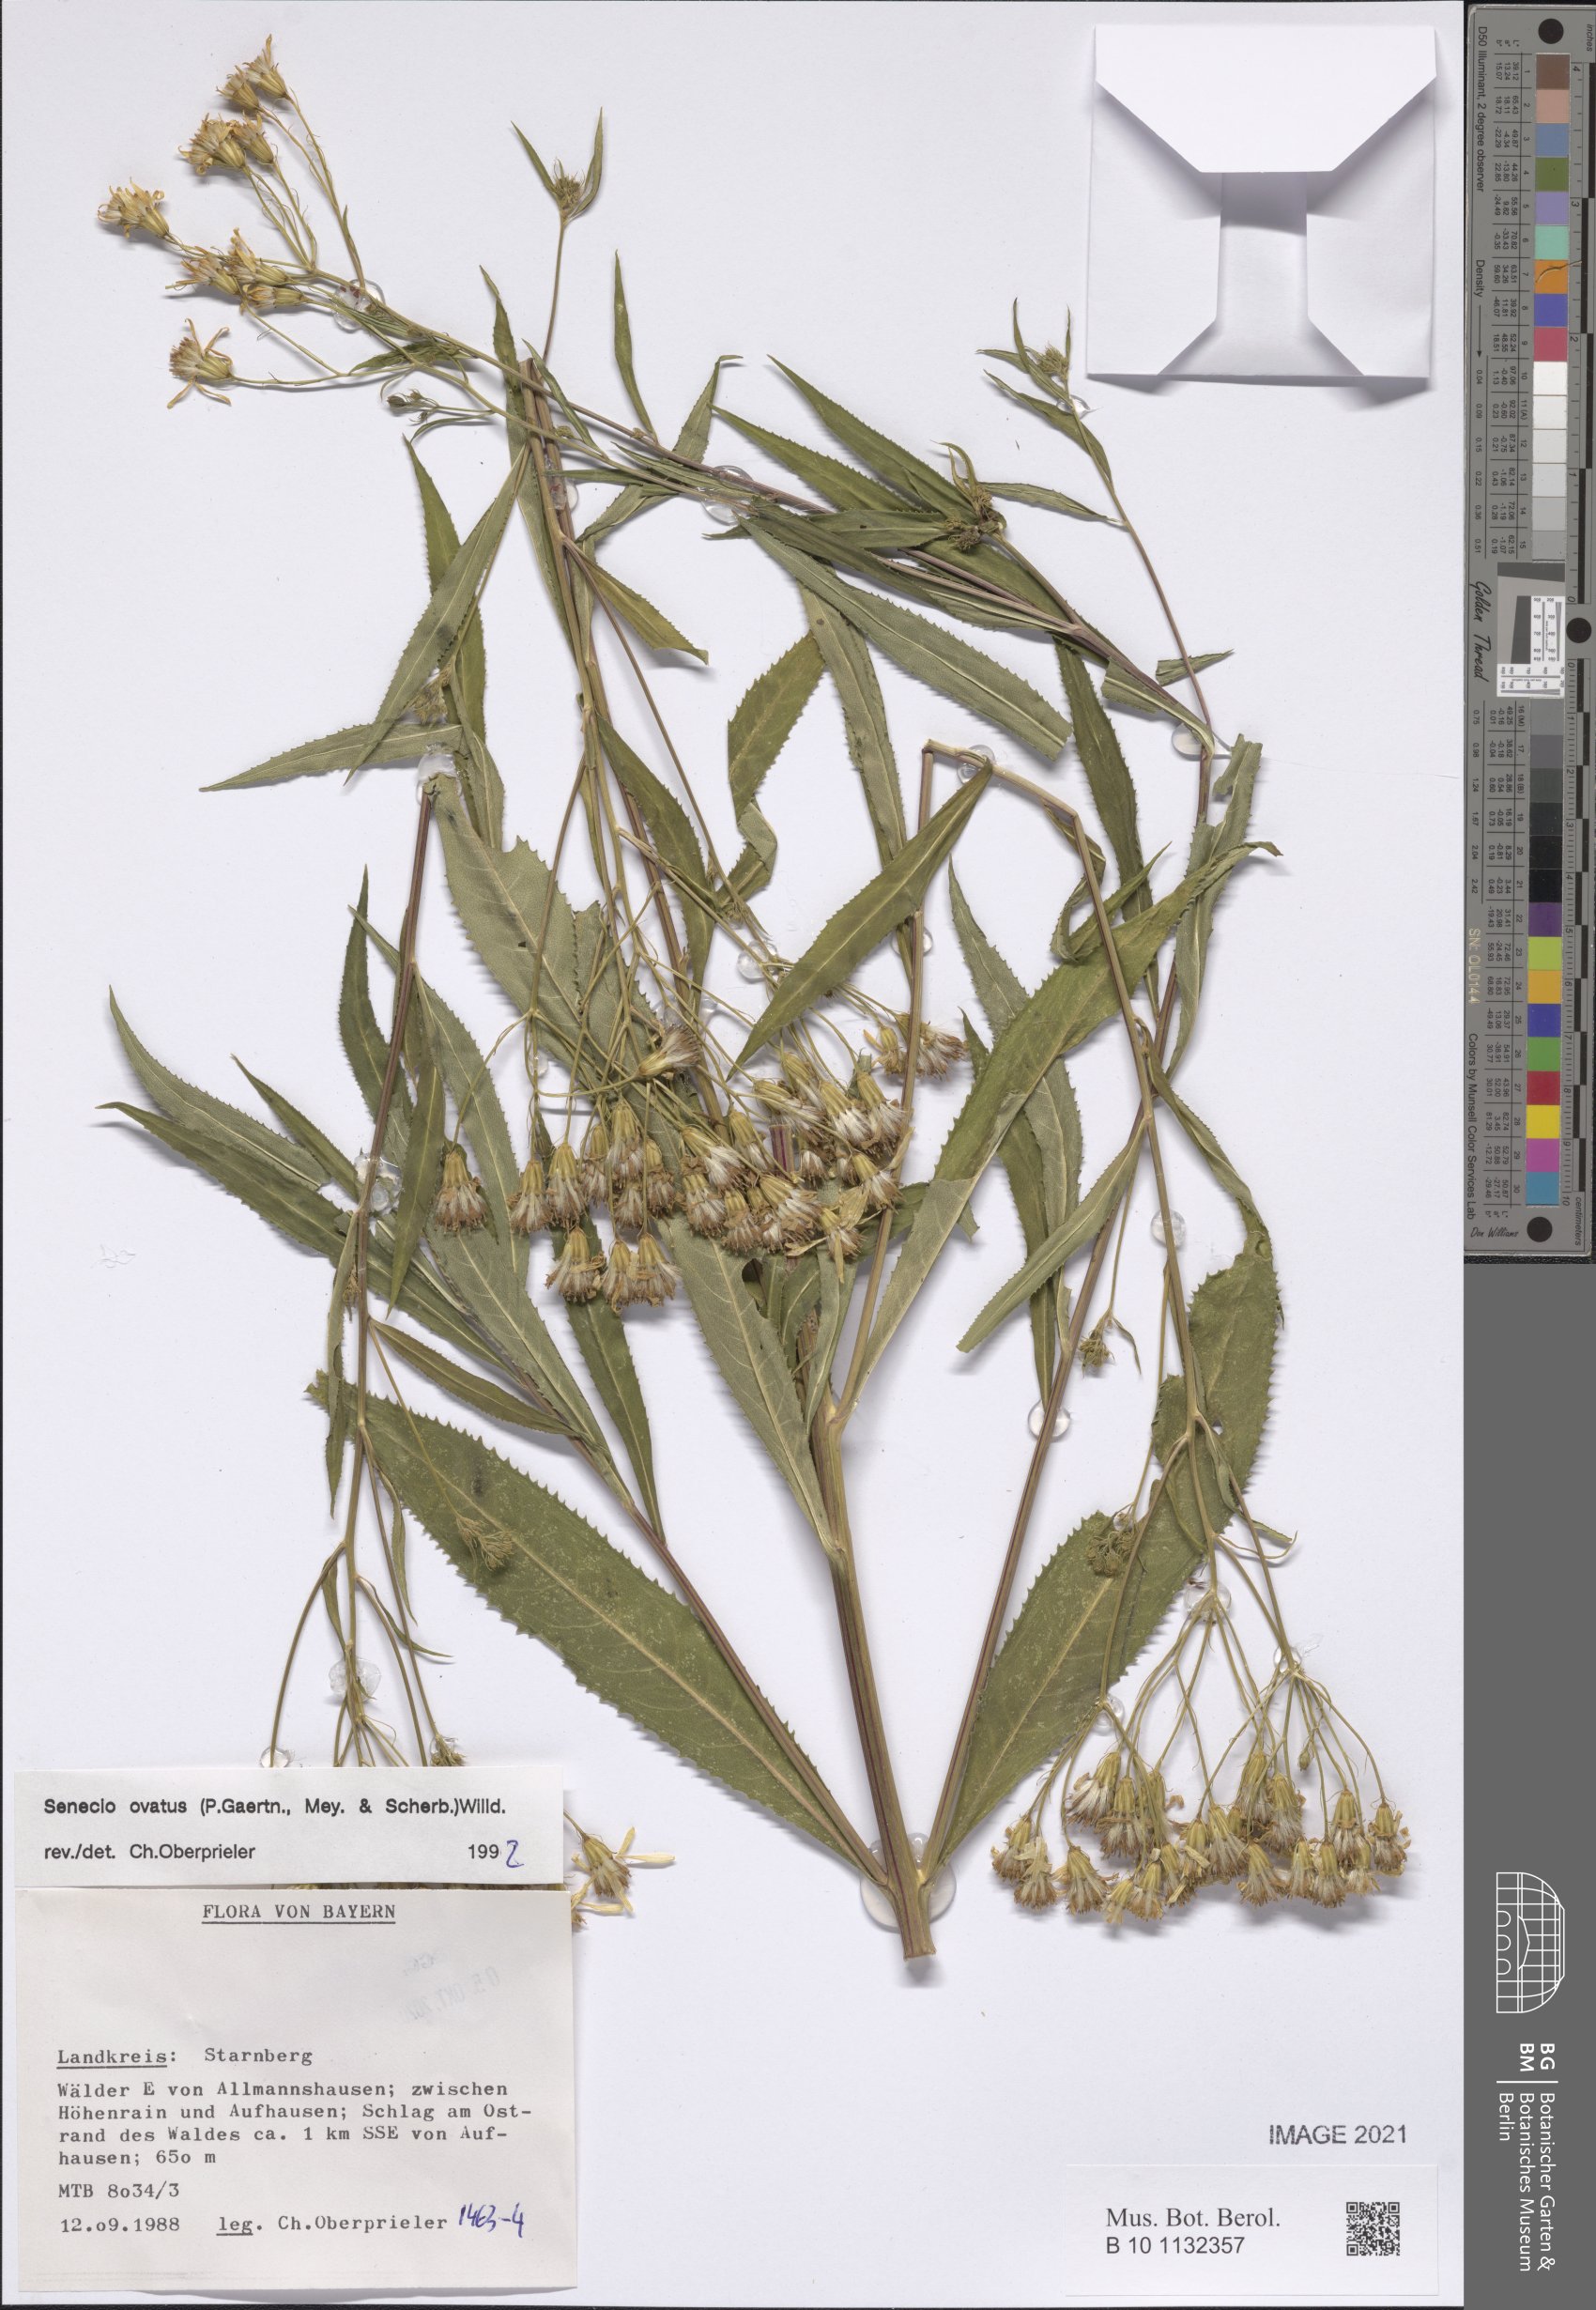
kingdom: Plantae
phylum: Tracheophyta
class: Magnoliopsida
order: Asterales
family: Asteraceae
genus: Senecio
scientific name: Senecio ovatus
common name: Wood ragwort
